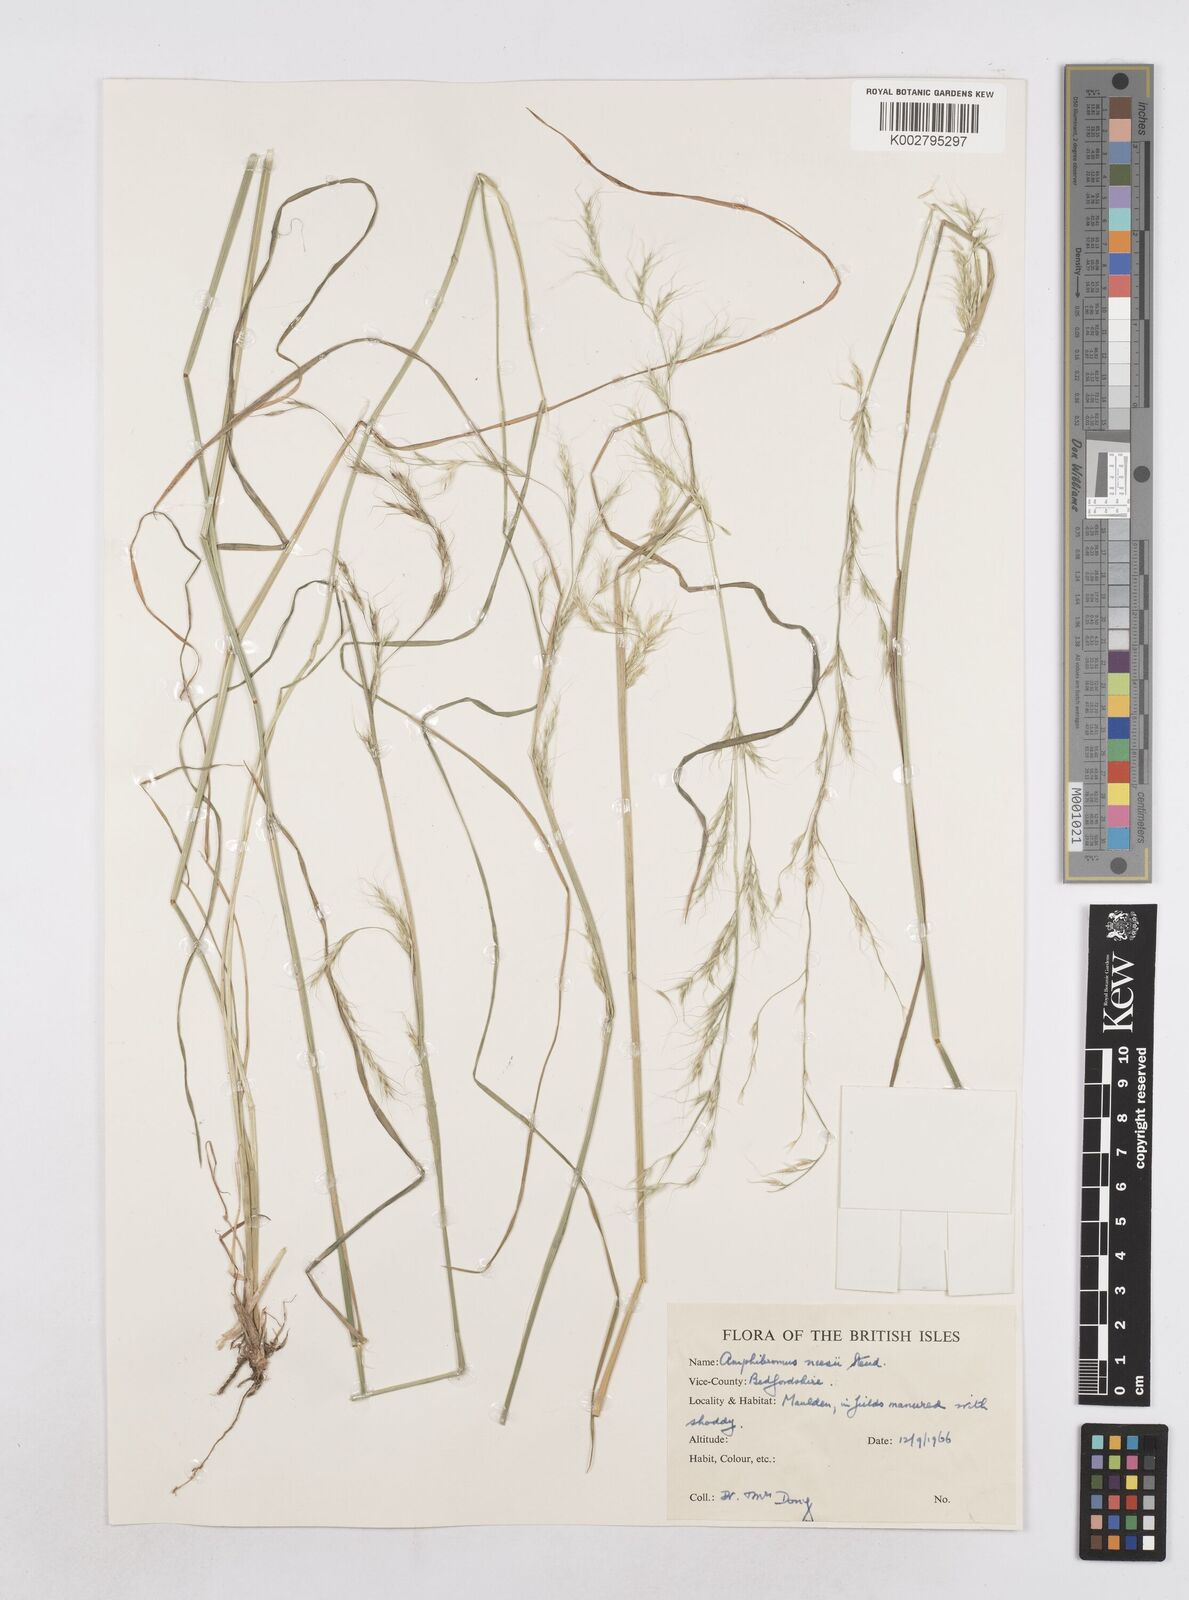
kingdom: Plantae
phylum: Tracheophyta
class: Liliopsida
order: Poales
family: Poaceae
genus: Amphibromus
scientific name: Amphibromus neesii
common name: Australian wallaby grass
